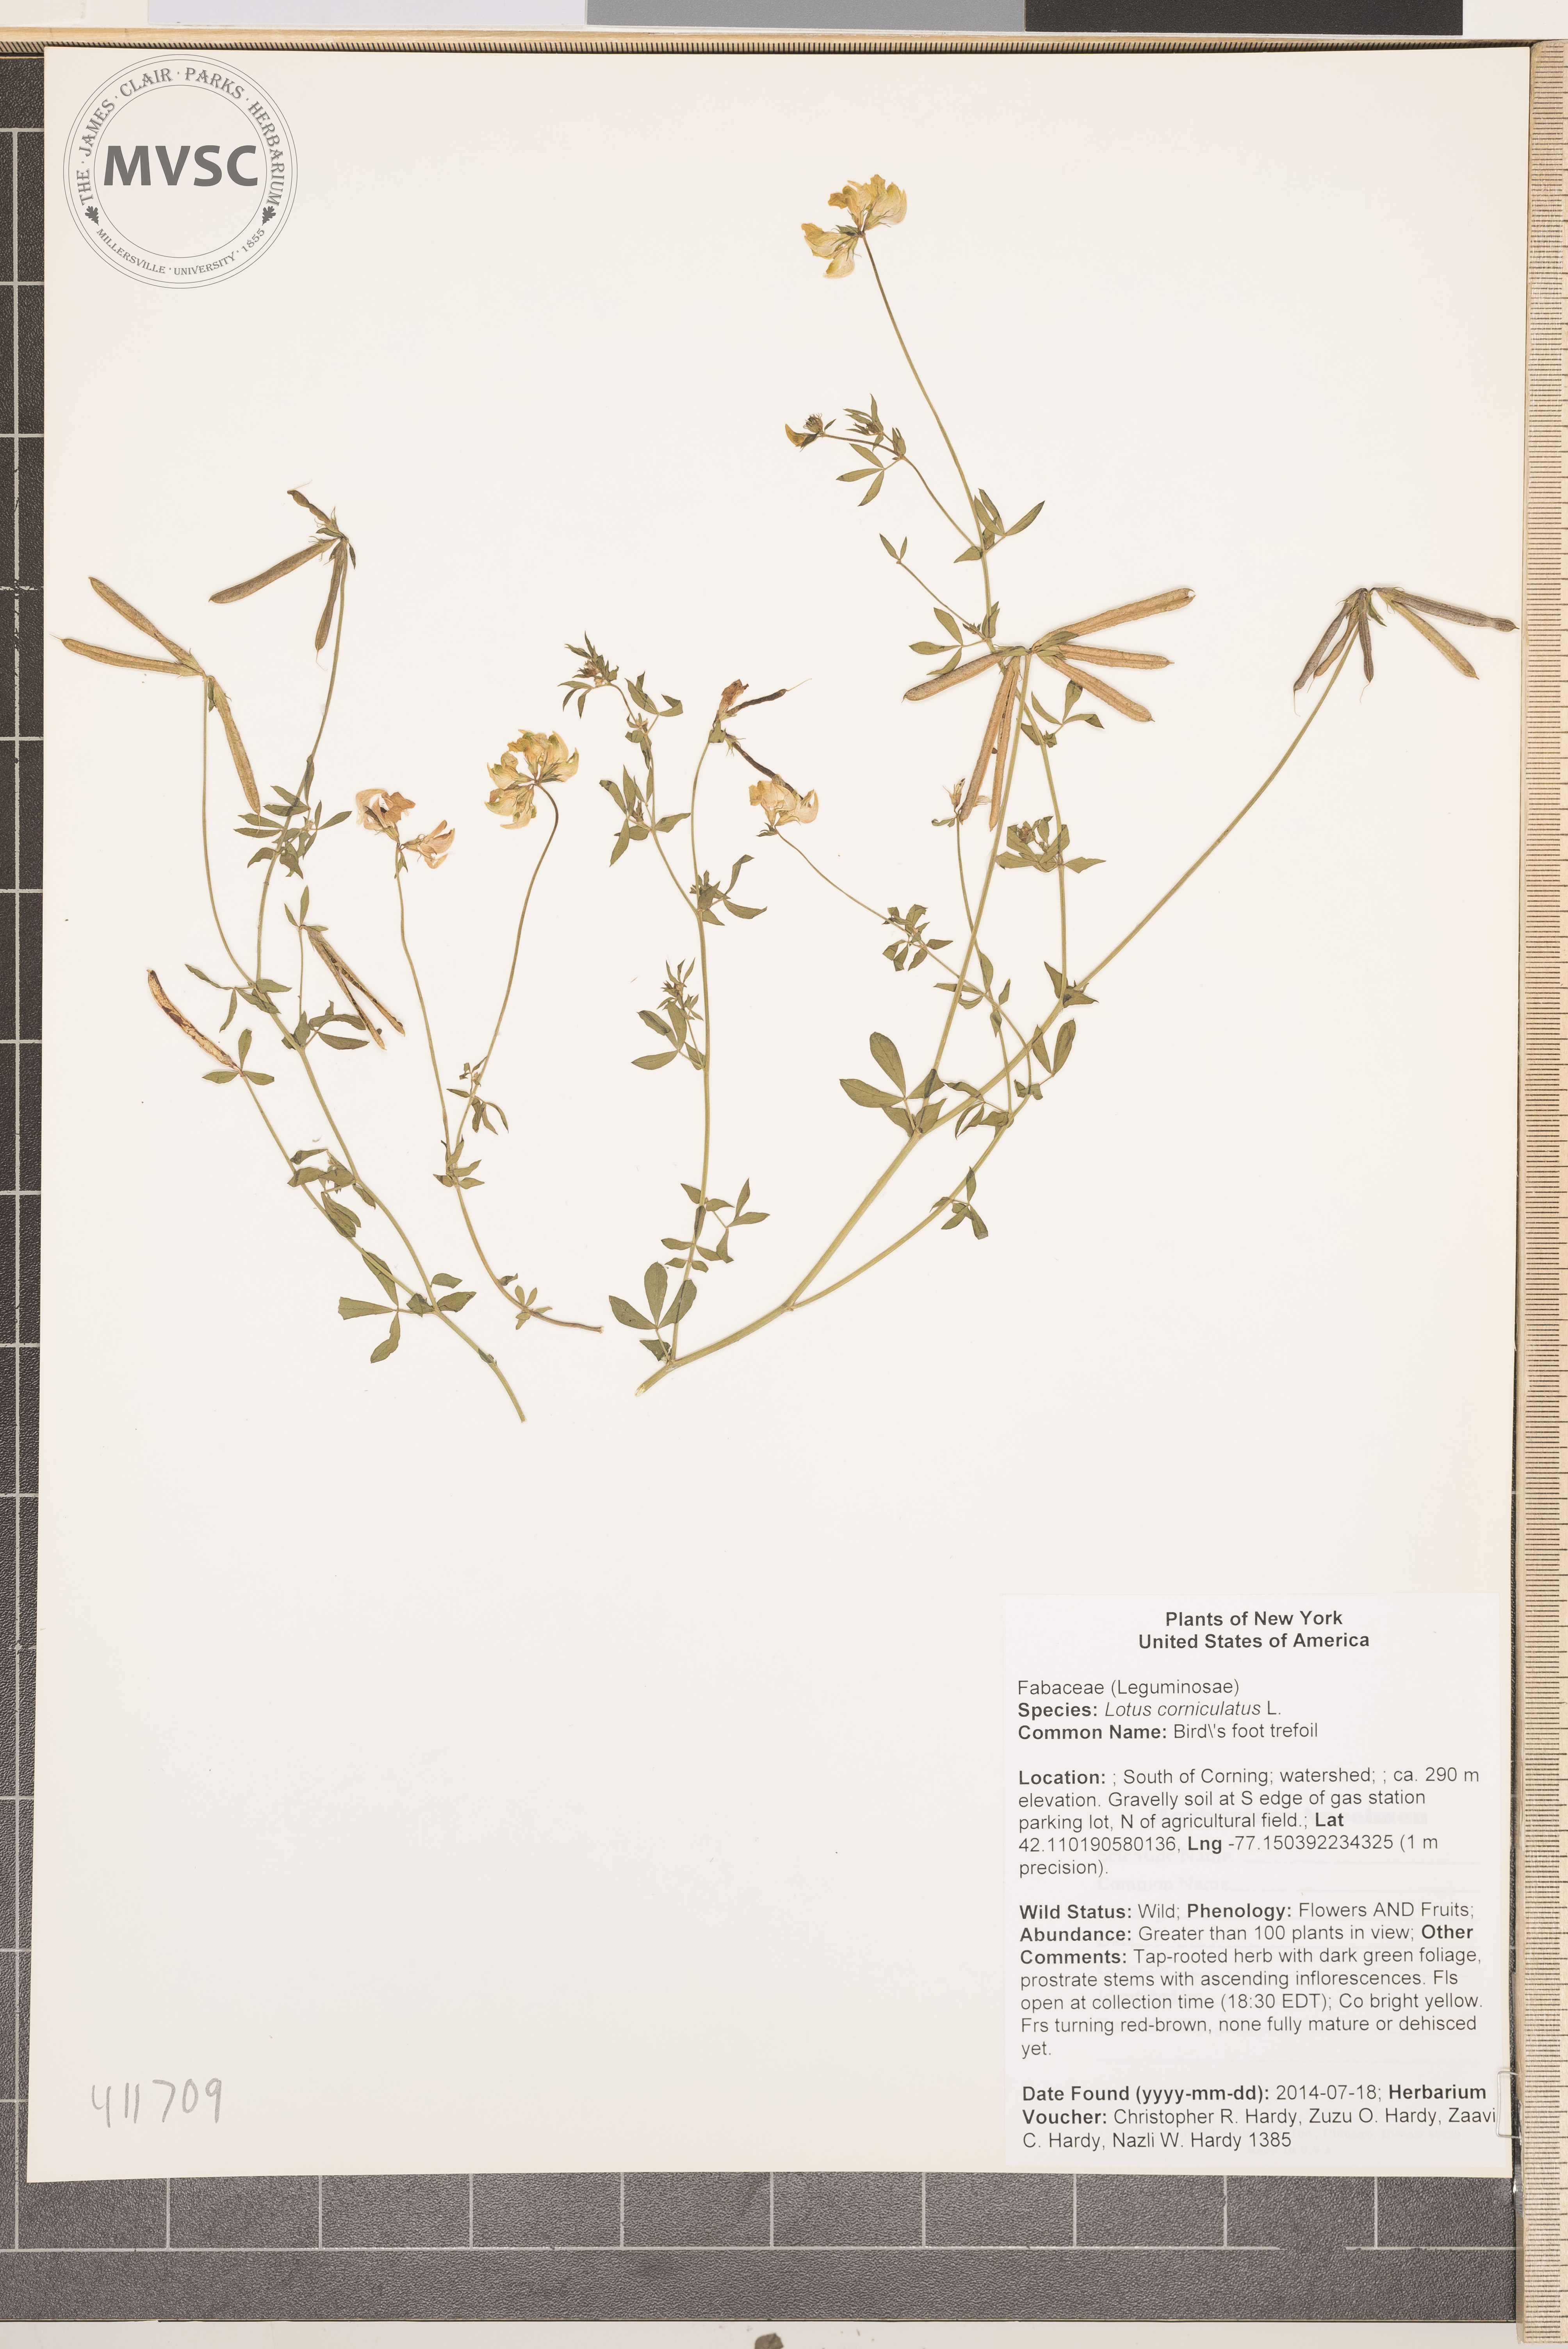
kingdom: Plantae
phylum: Tracheophyta
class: Magnoliopsida
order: Fabales
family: Fabaceae
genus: Lotus
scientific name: Lotus corniculatus
